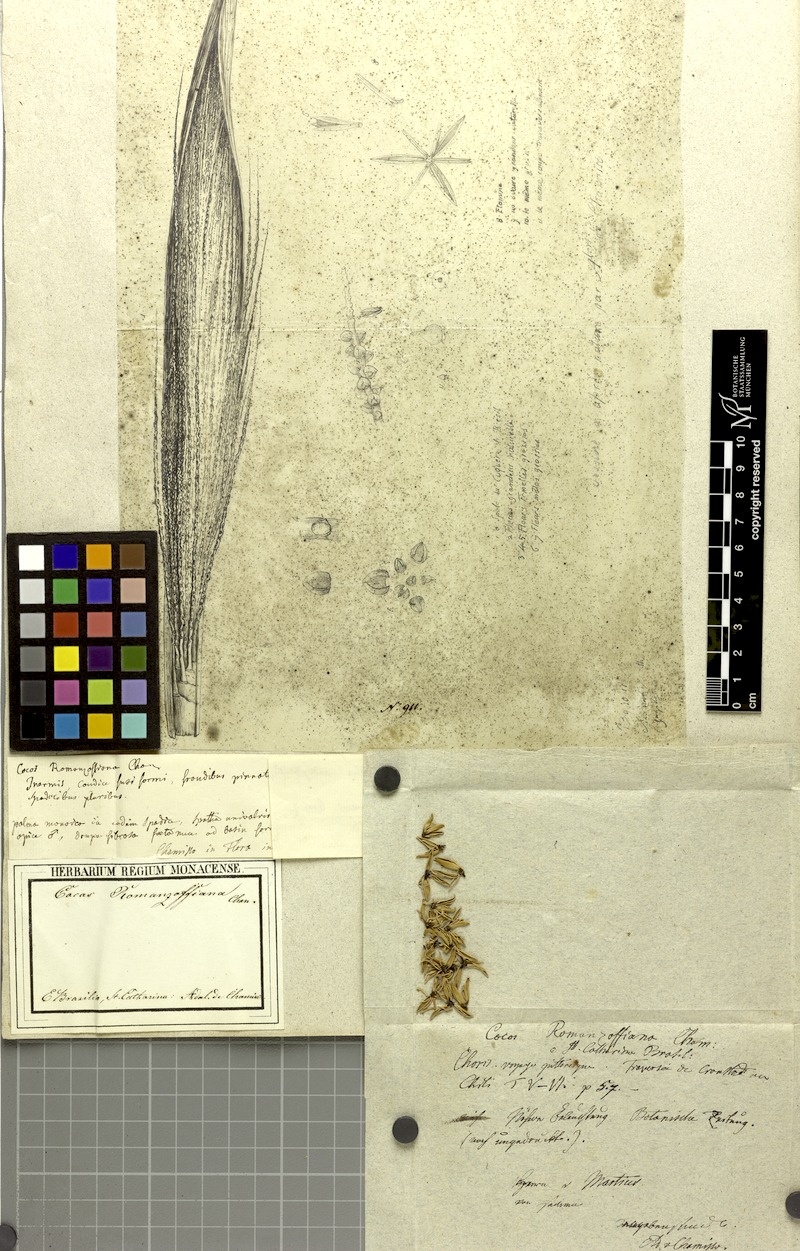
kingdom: Plantae
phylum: Tracheophyta
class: Liliopsida
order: Arecales
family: Arecaceae
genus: Syagrus
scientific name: Syagrus romanzoffiana
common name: Queen palm
